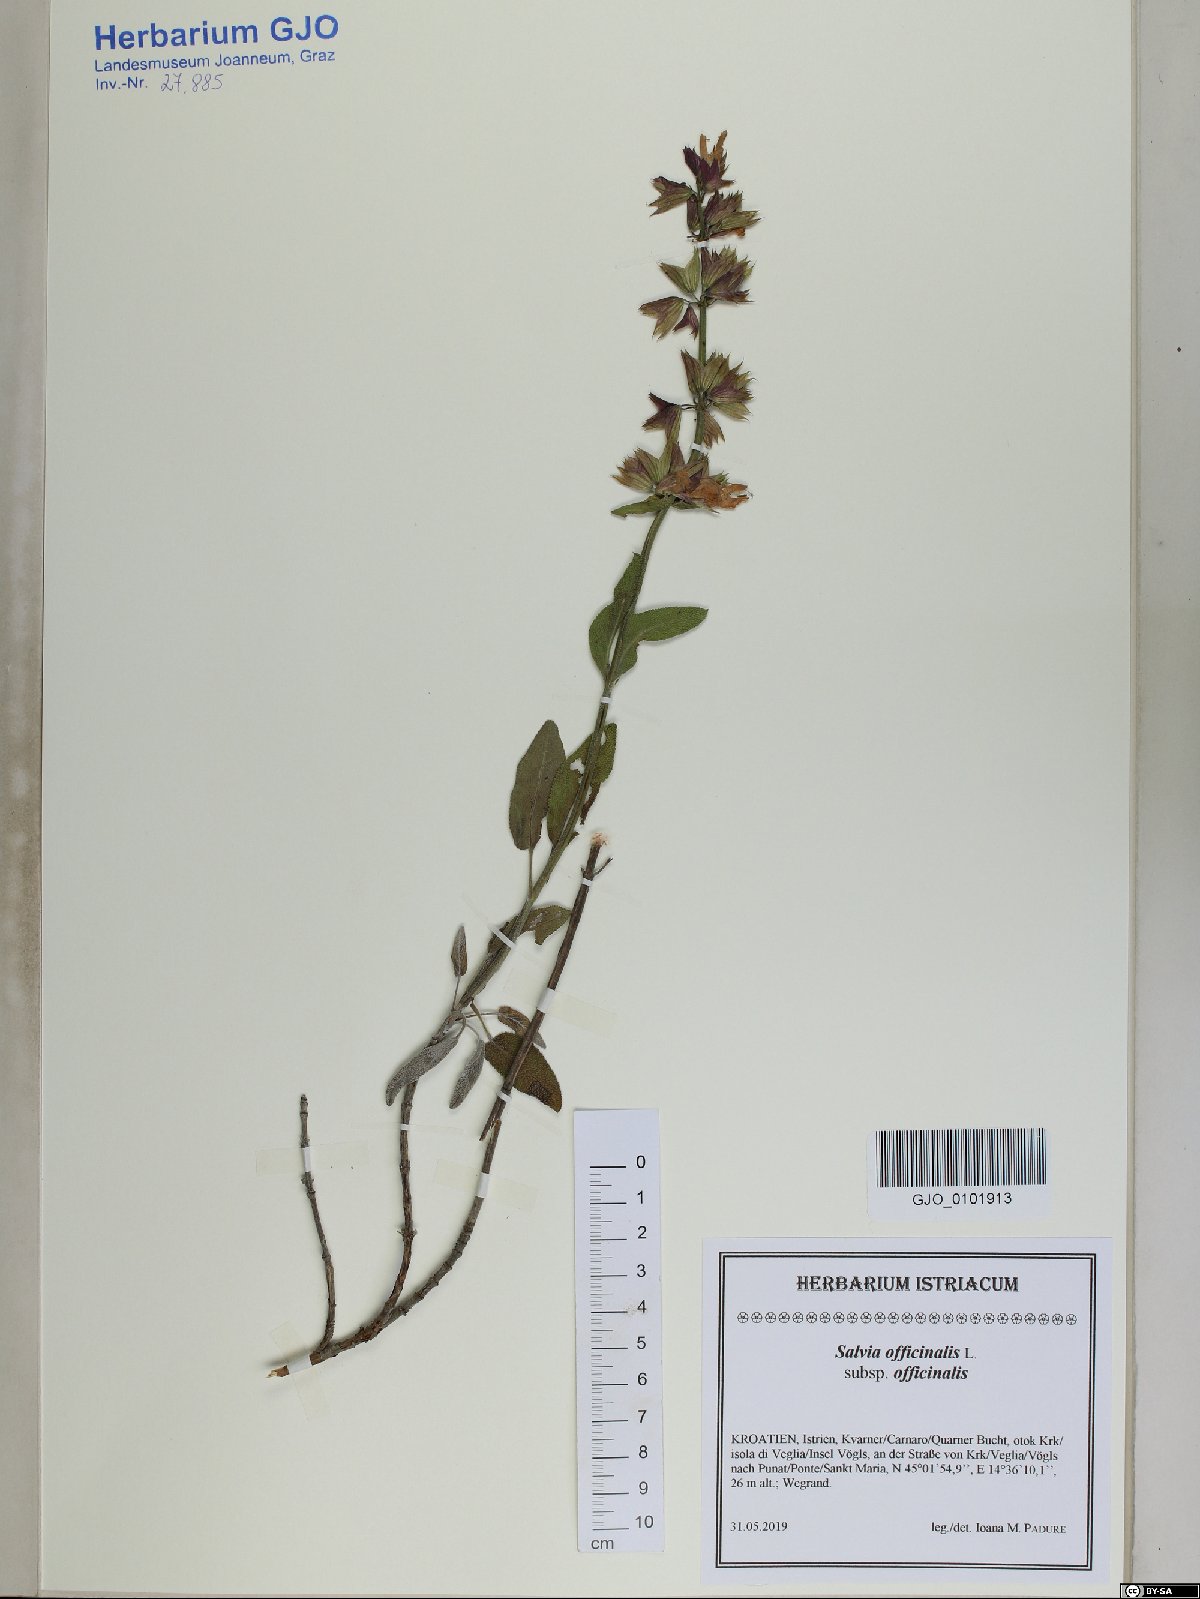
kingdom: Plantae
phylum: Tracheophyta
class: Magnoliopsida
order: Lamiales
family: Lamiaceae
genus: Salvia
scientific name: Salvia officinalis
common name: Sage
